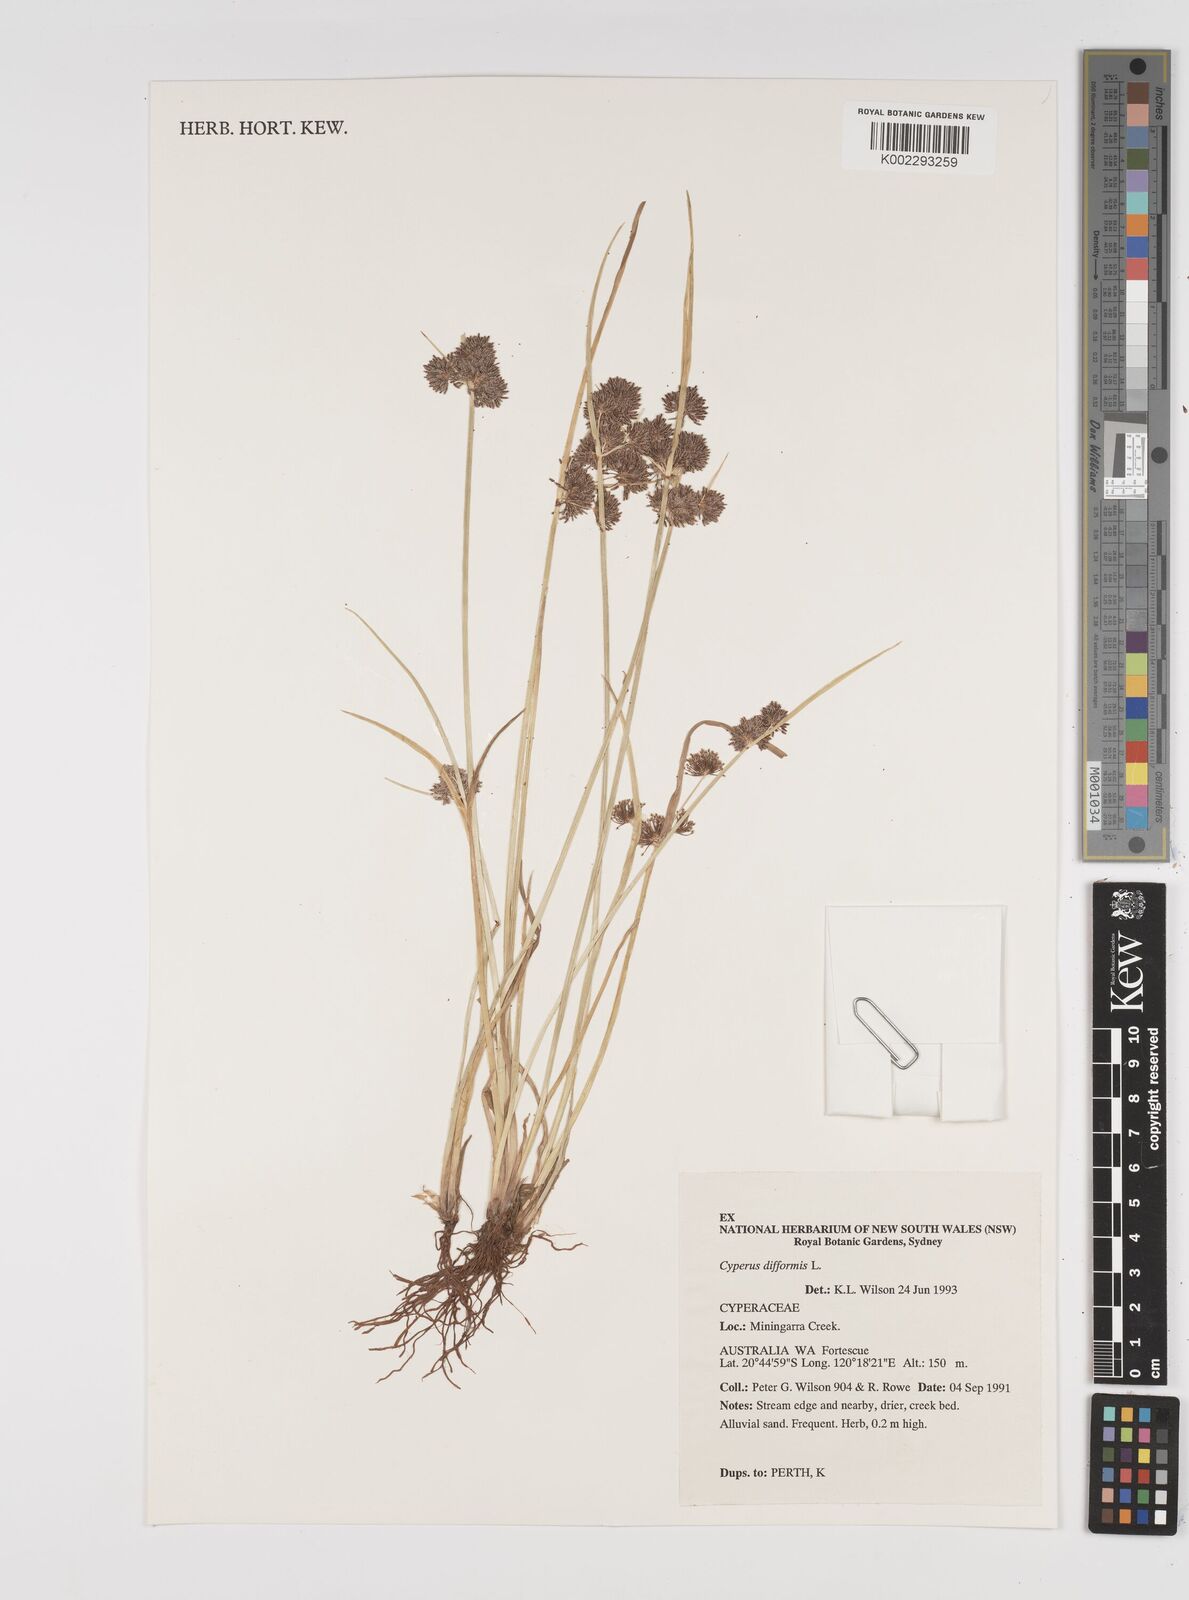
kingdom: Plantae
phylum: Tracheophyta
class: Liliopsida
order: Poales
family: Cyperaceae
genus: Cyperus
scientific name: Cyperus difformis
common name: Variable flatsedge
